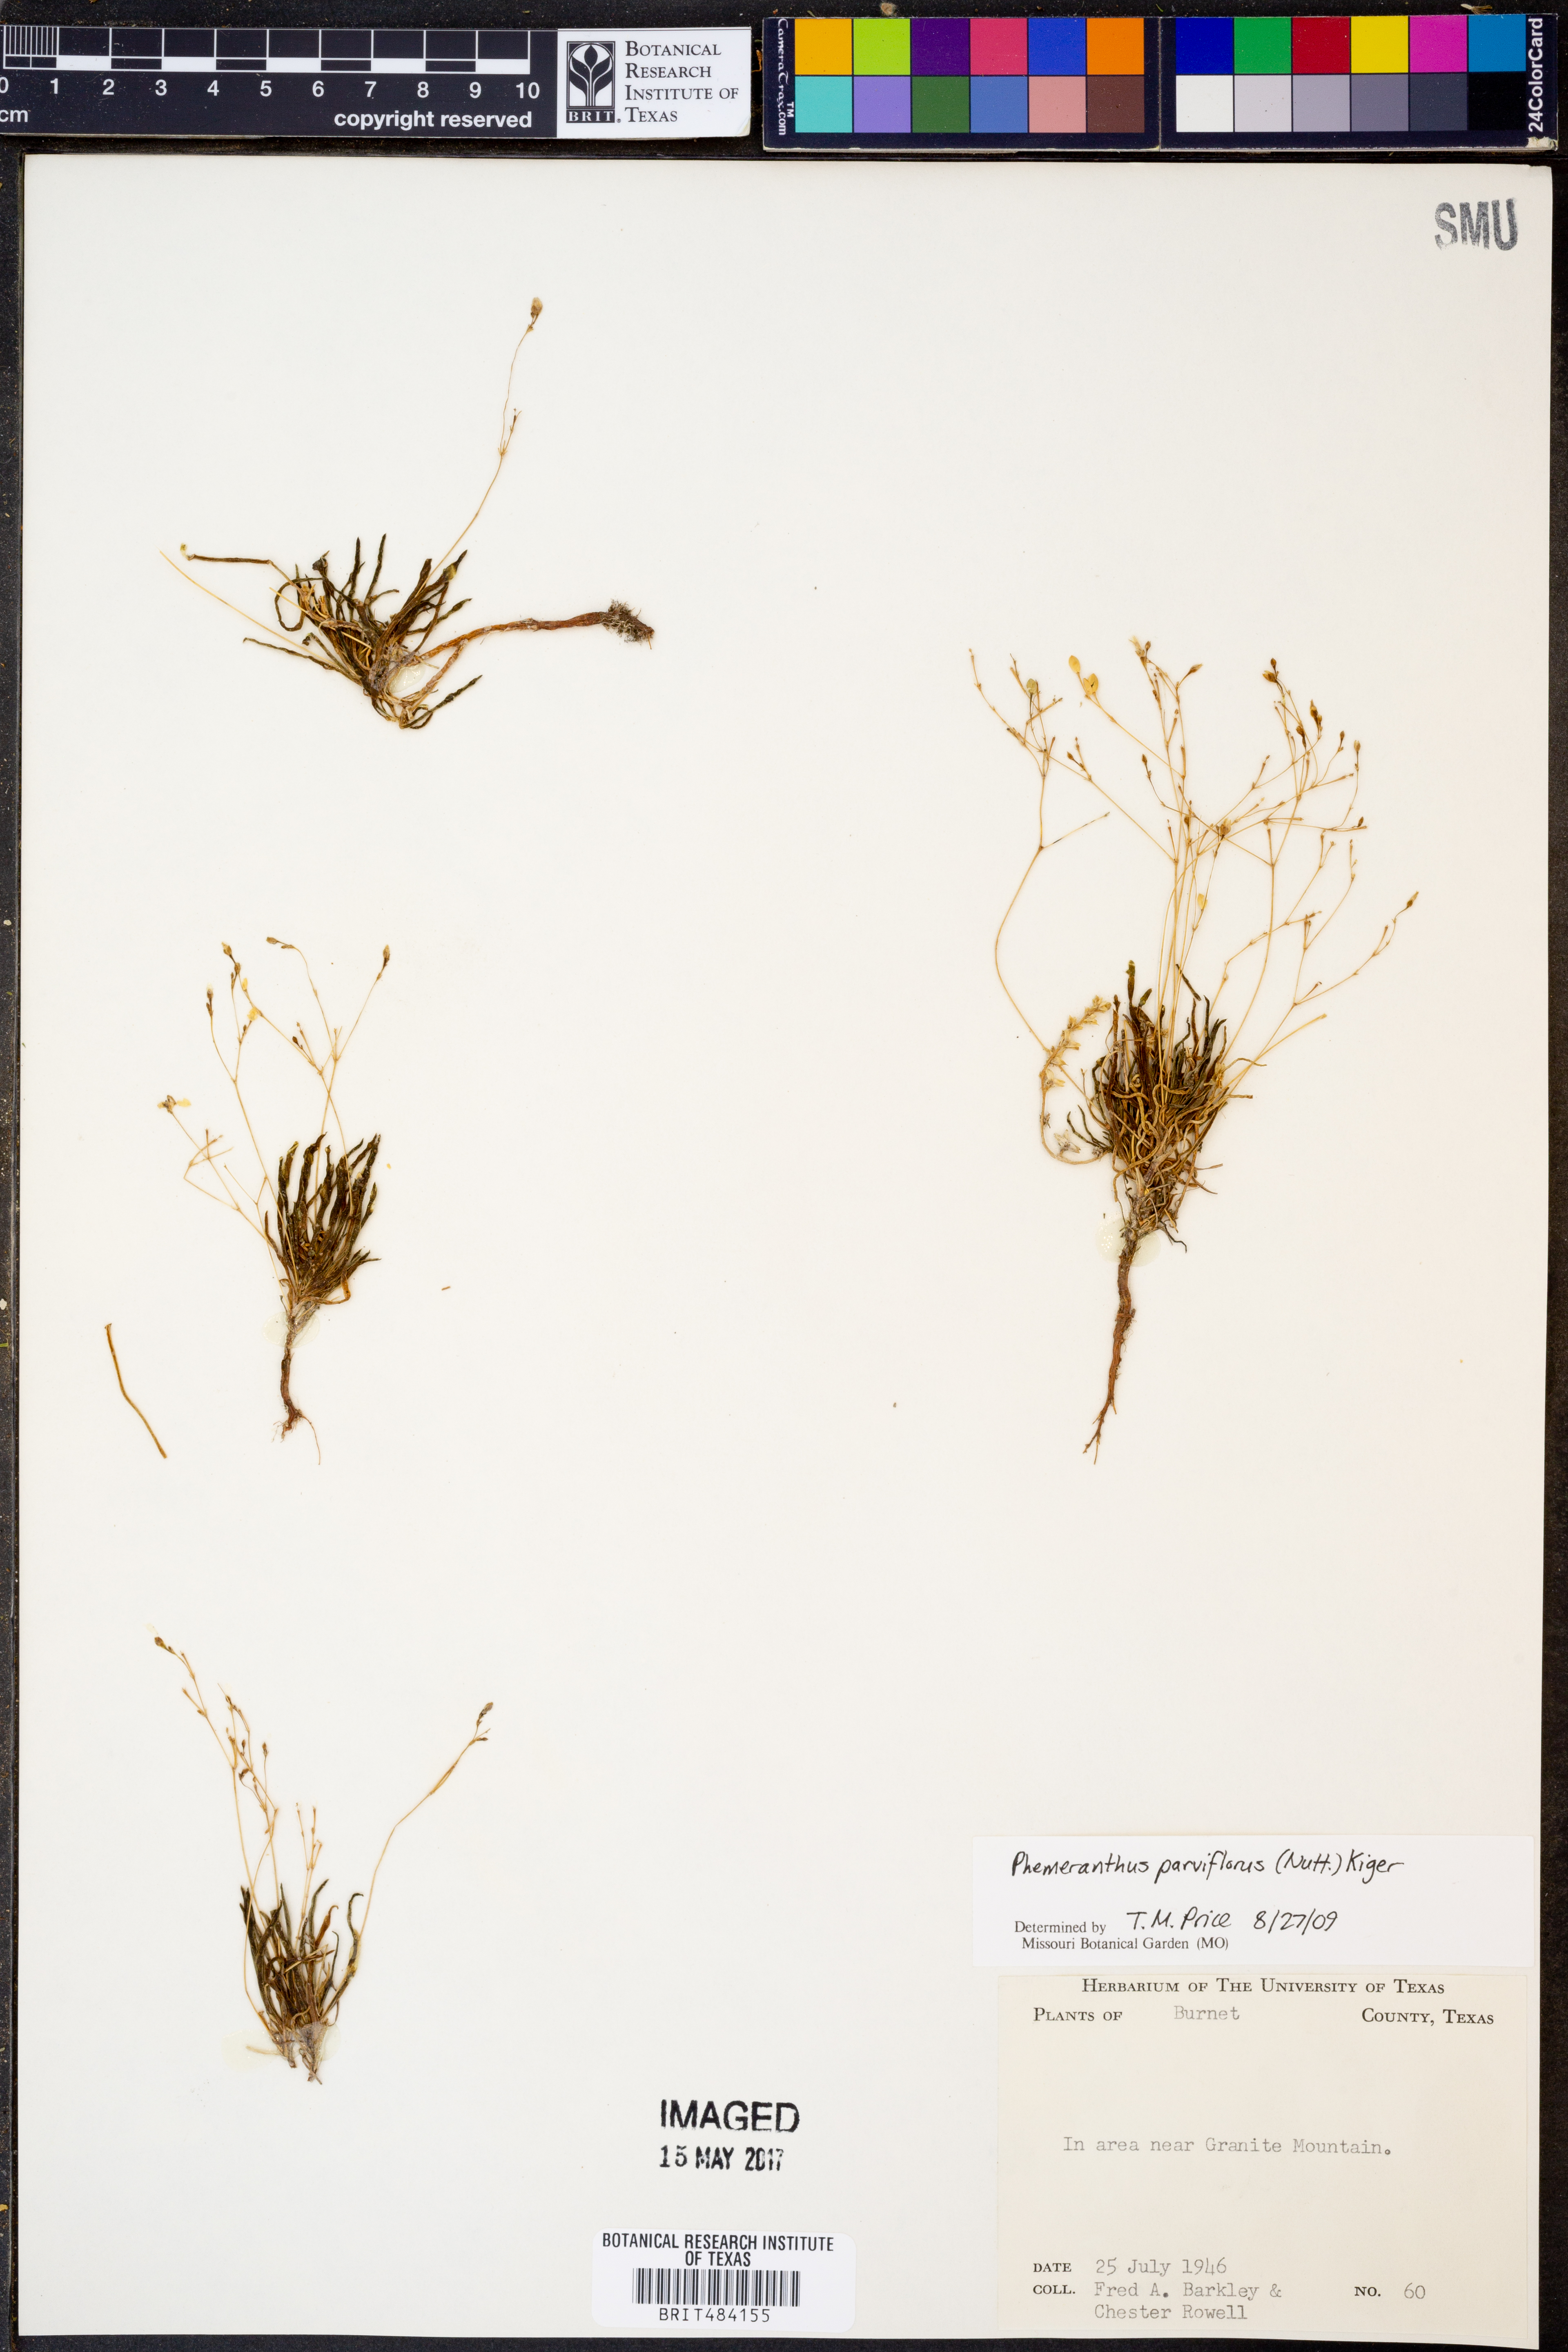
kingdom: Plantae
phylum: Tracheophyta
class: Magnoliopsida
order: Caryophyllales
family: Montiaceae
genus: Phemeranthus
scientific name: Phemeranthus parviflorus
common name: Sunbright
